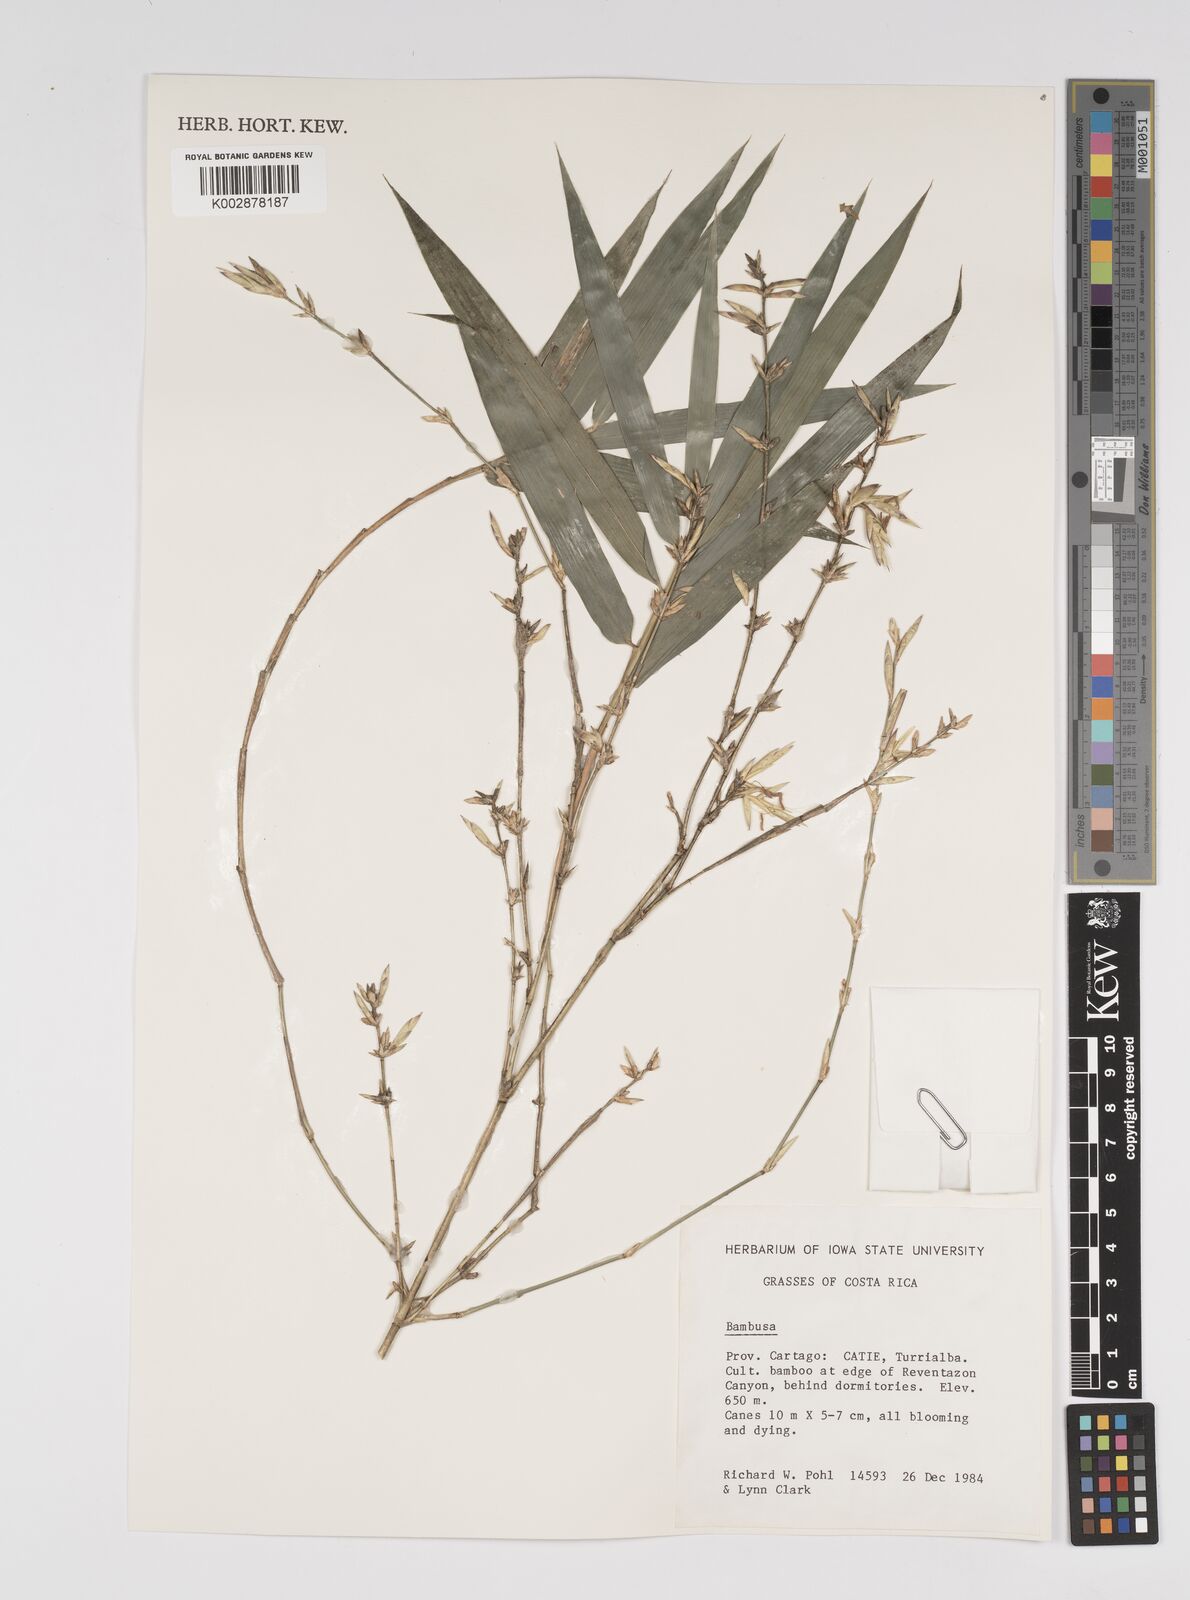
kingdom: Plantae
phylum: Tracheophyta
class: Liliopsida
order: Poales
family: Poaceae
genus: Bambusa
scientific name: Bambusa
